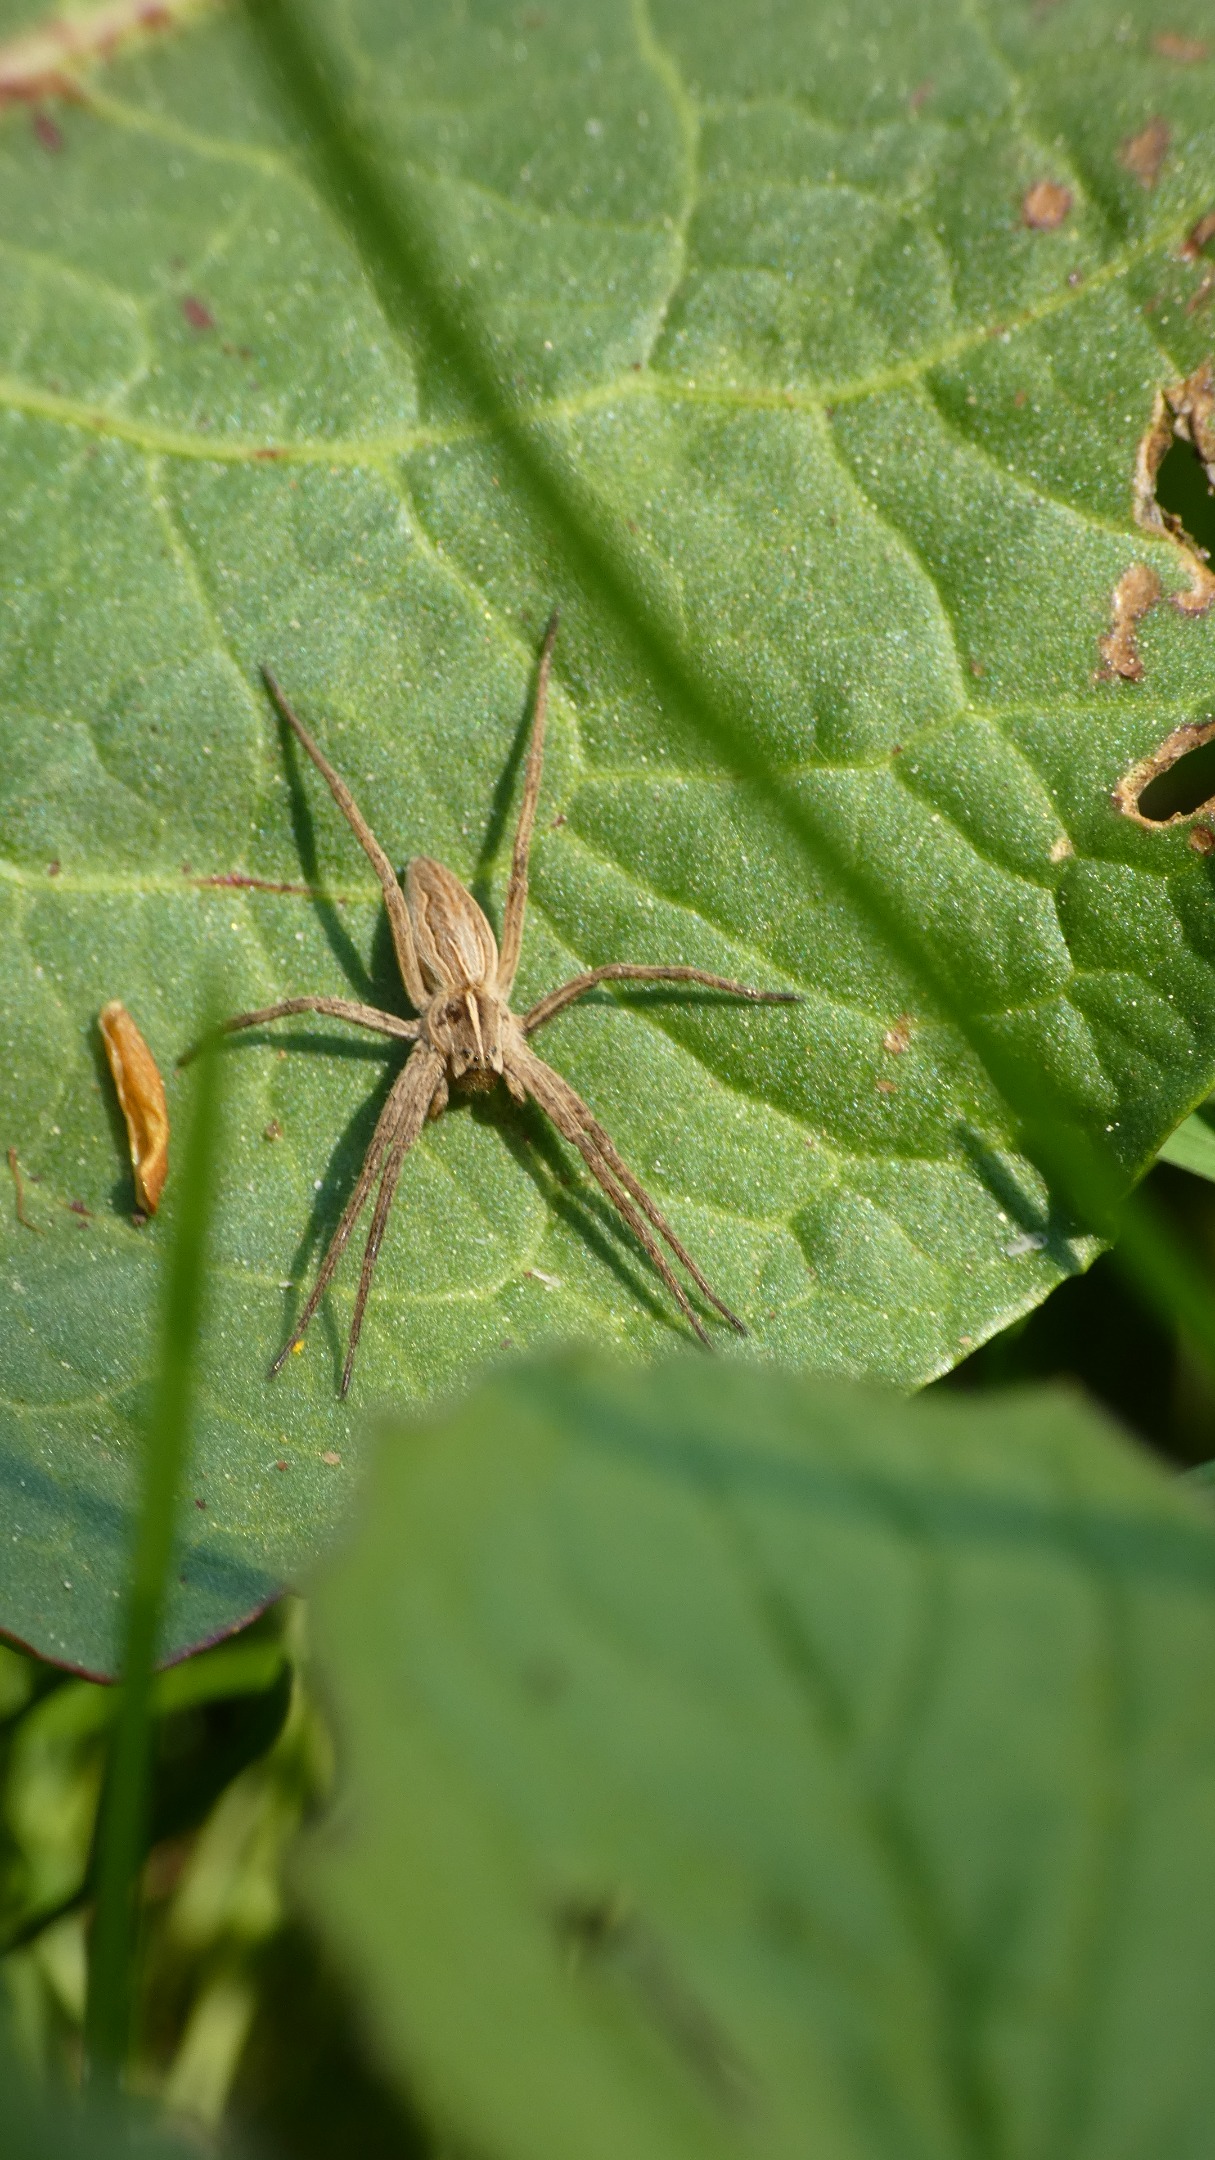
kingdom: Animalia
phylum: Arthropoda
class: Arachnida
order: Araneae
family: Pisauridae
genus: Pisaura
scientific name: Pisaura mirabilis
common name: Almindelig rovedderkop
